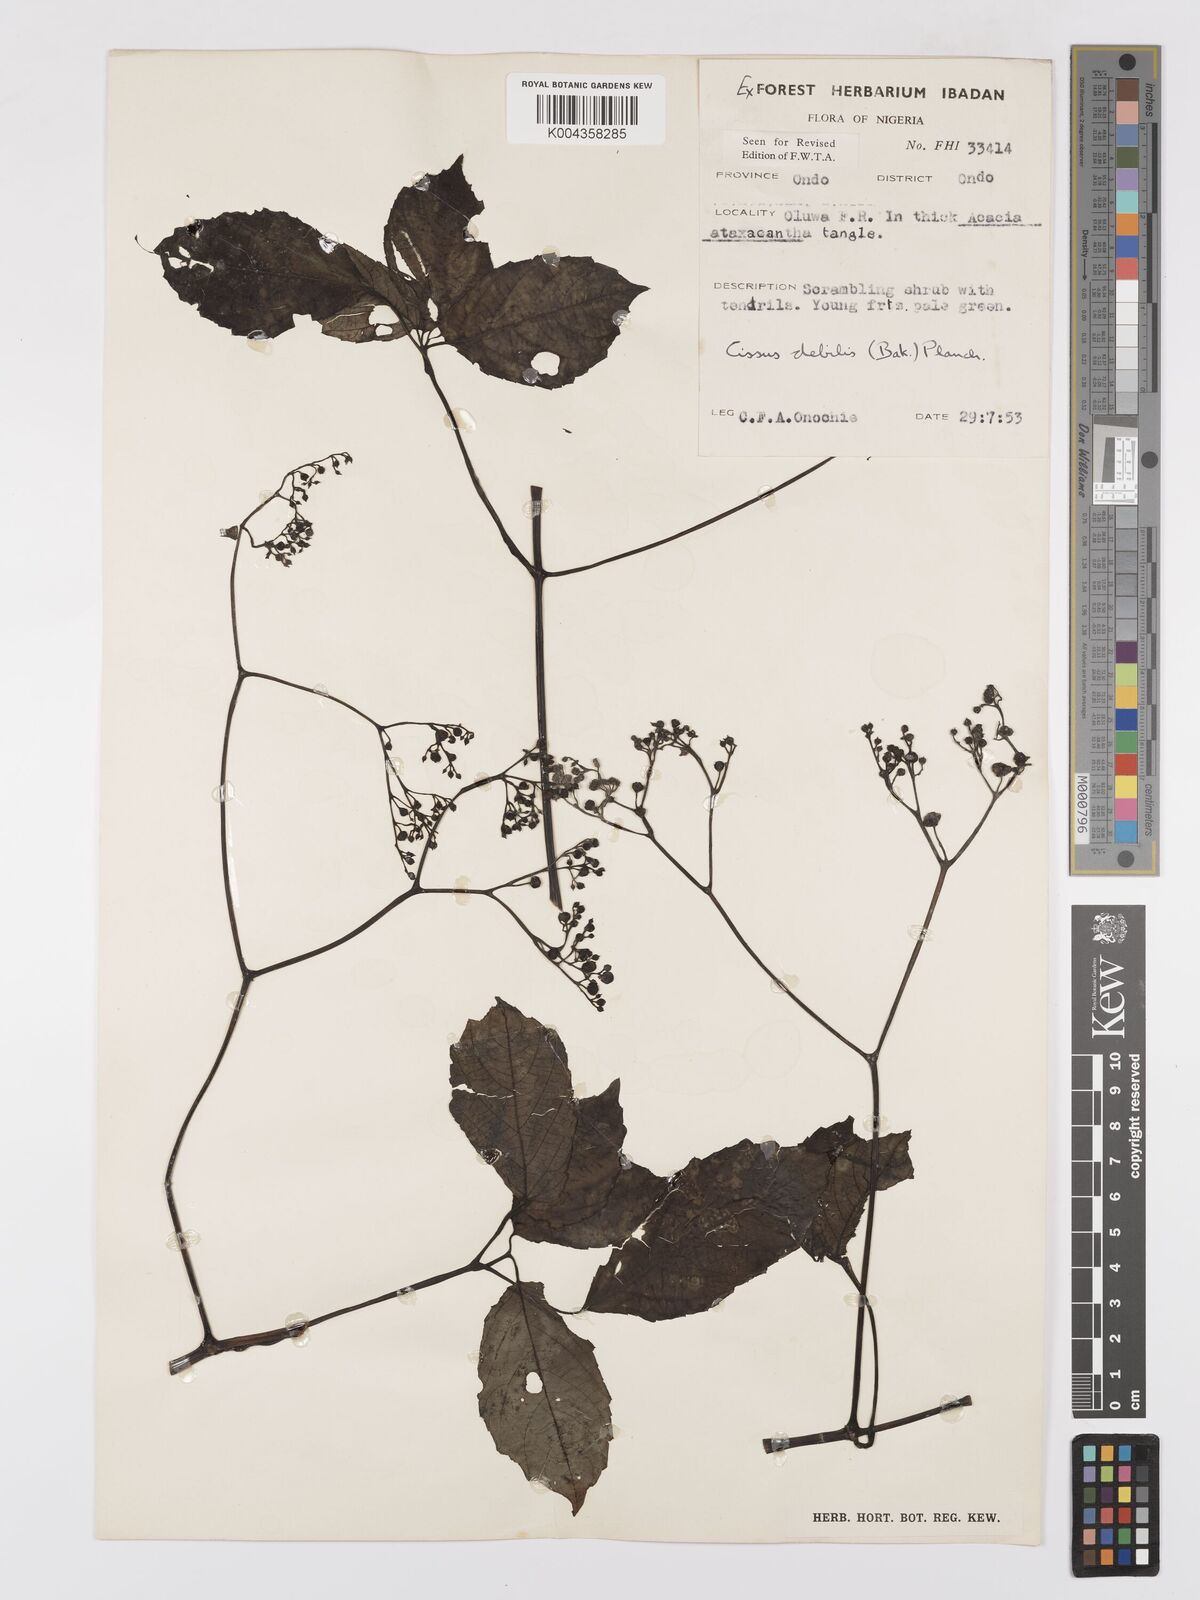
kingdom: Plantae
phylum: Tracheophyta
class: Magnoliopsida
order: Vitales
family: Vitaceae
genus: Afrocayratia
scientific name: Afrocayratia debilis
